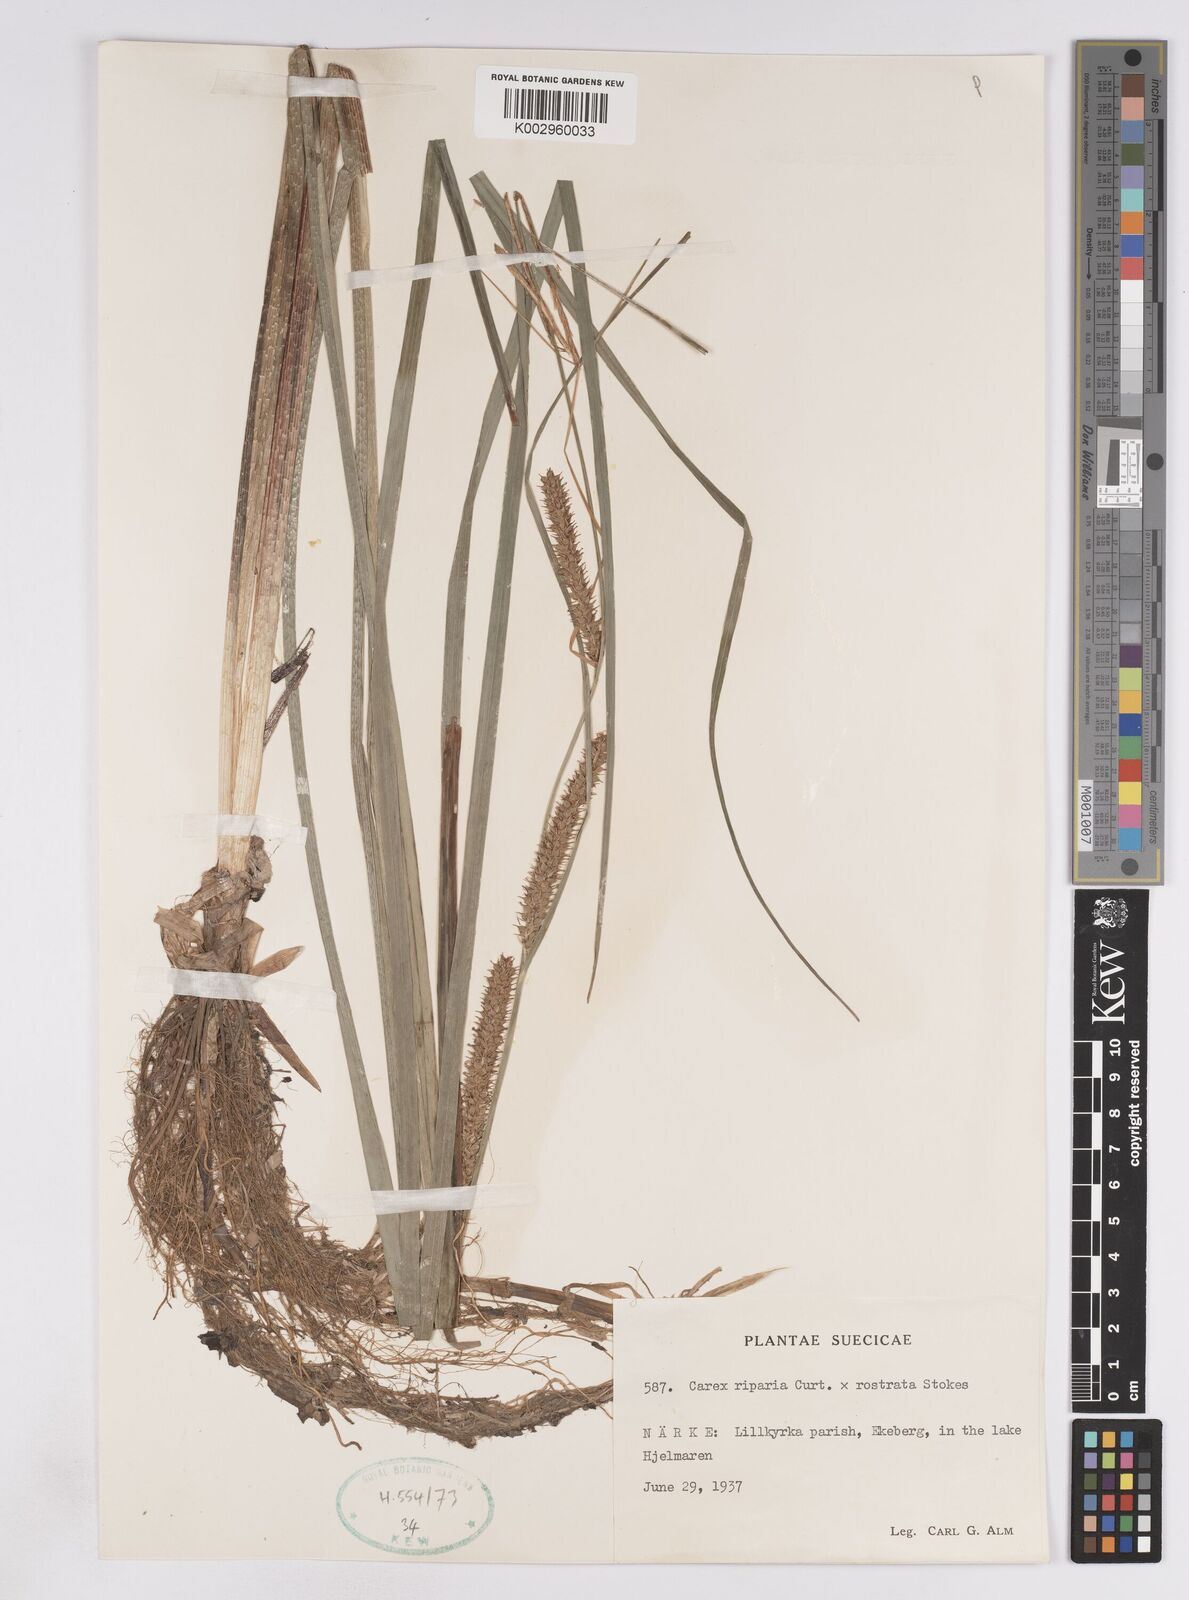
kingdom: Plantae
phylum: Tracheophyta
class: Liliopsida
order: Poales
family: Cyperaceae
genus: Carex
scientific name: Carex
